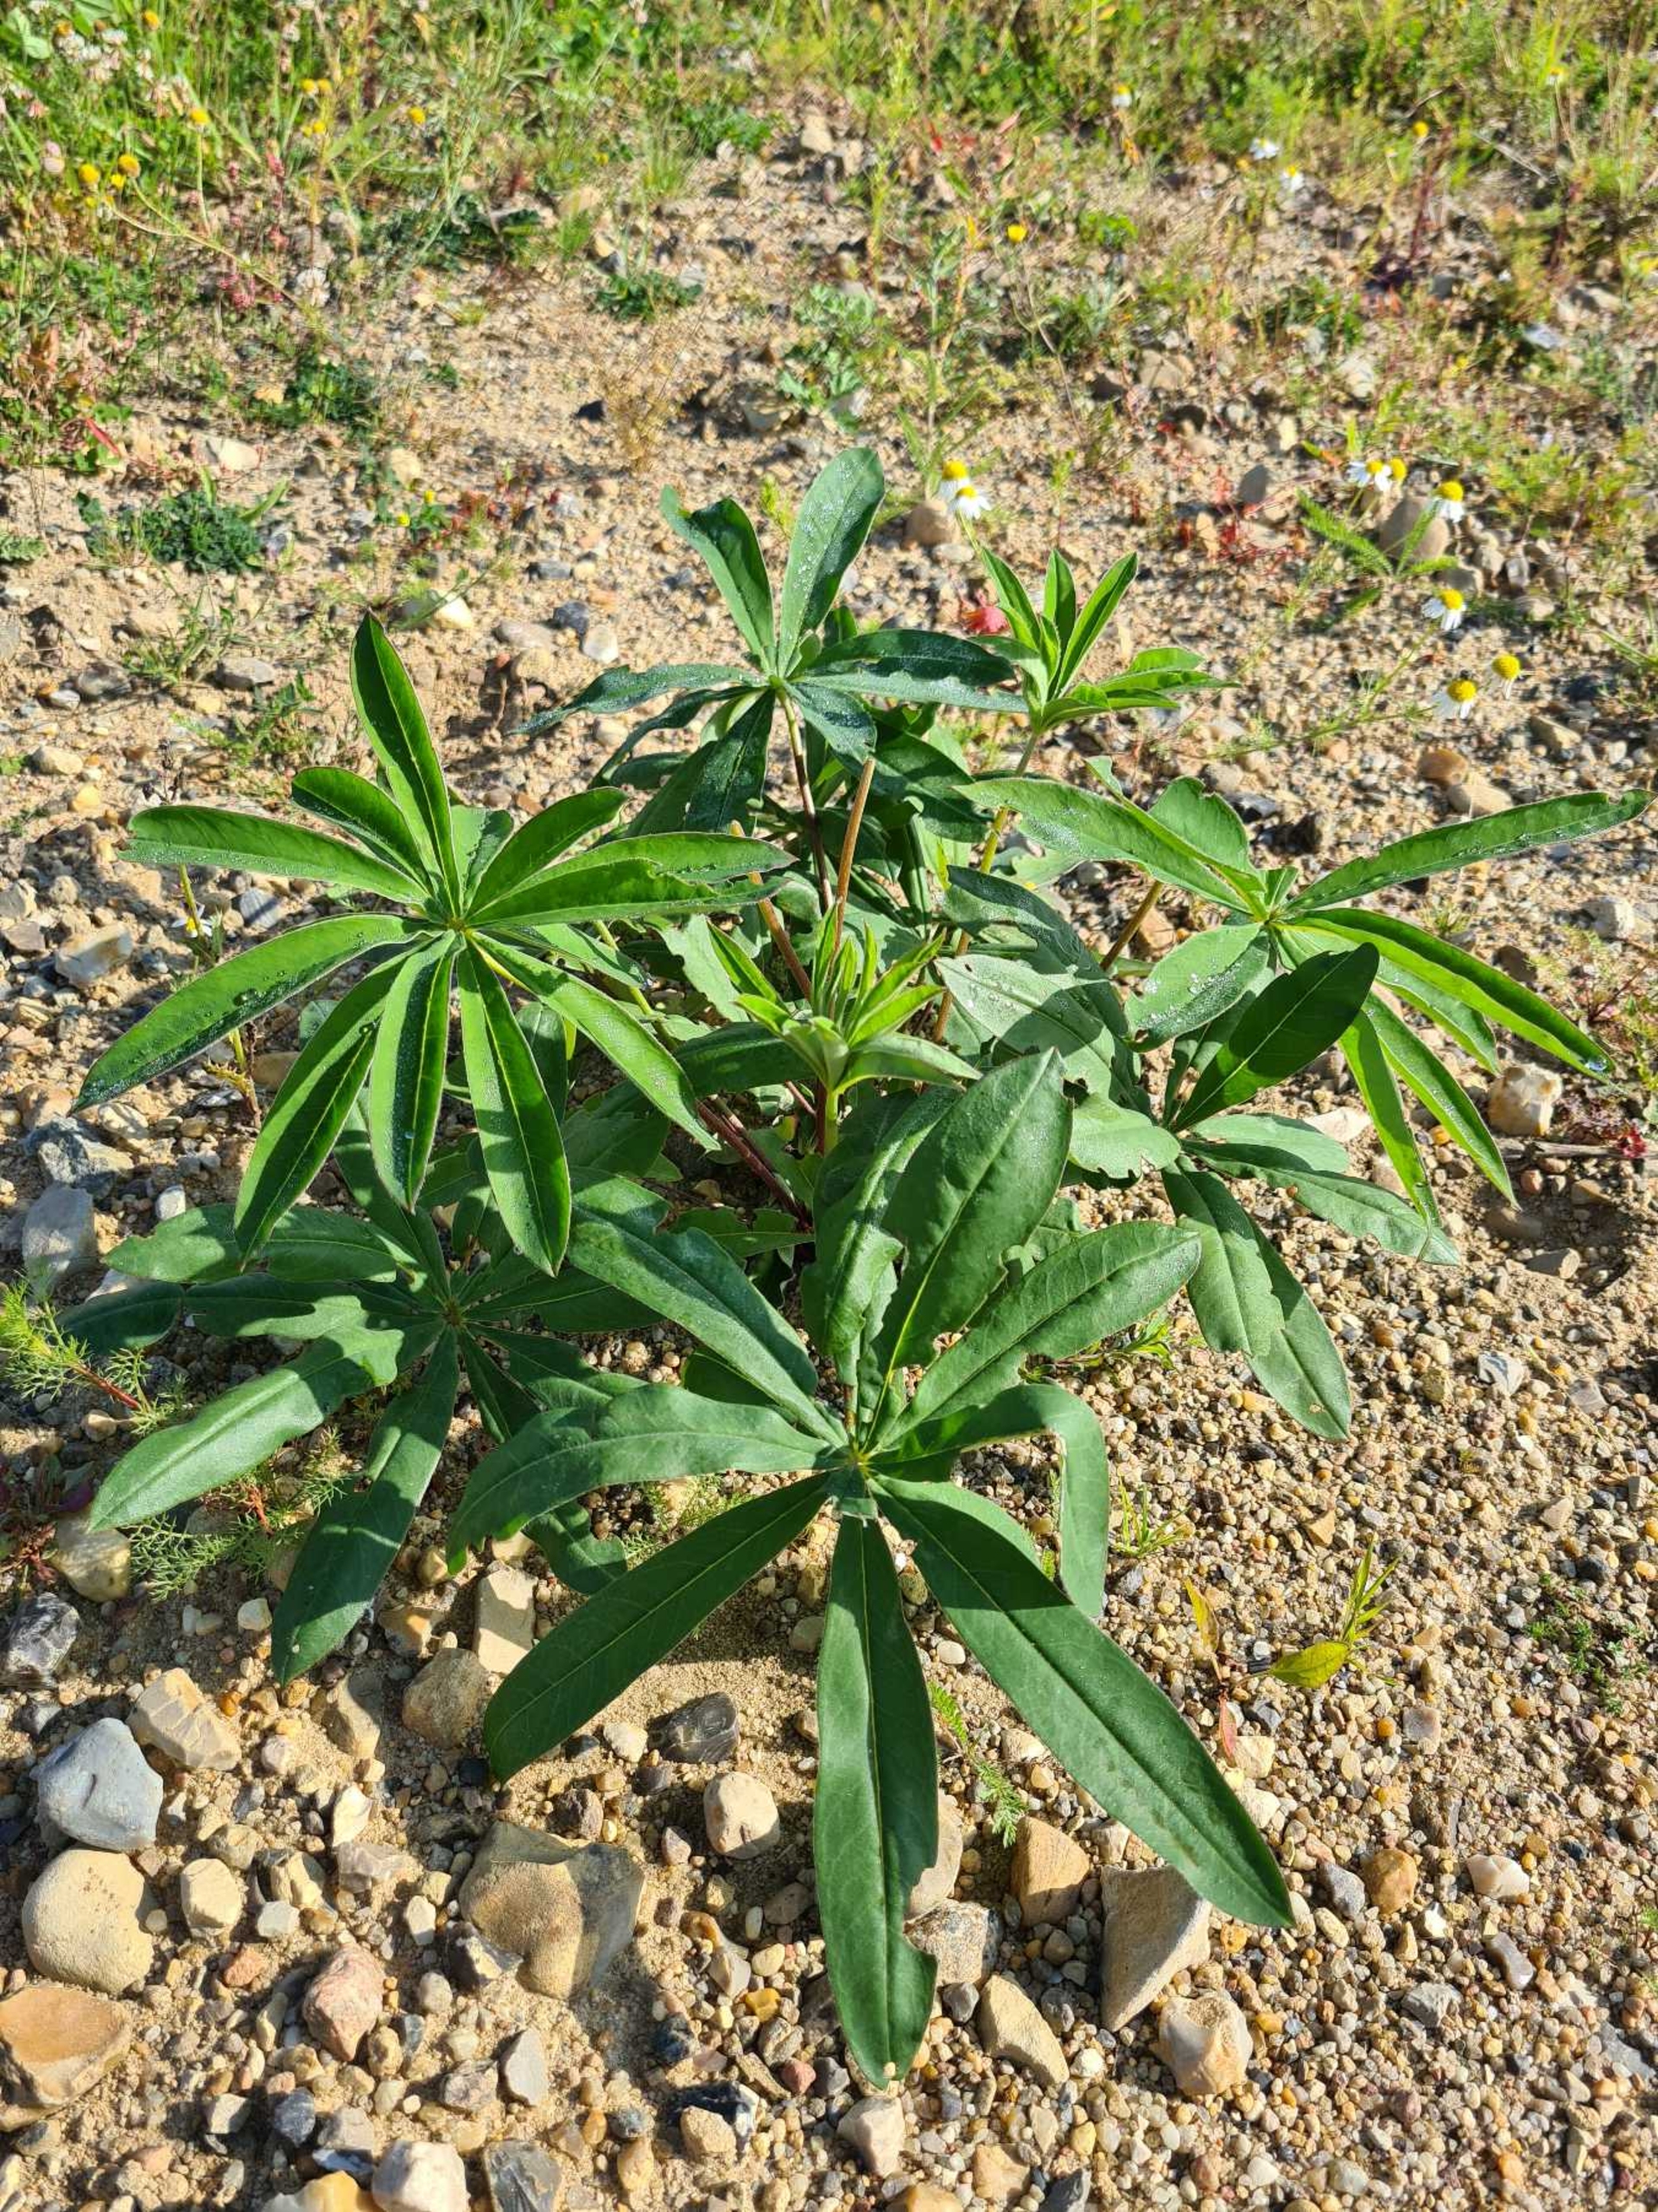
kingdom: Plantae
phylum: Tracheophyta
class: Magnoliopsida
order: Fabales
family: Fabaceae
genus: Lupinus
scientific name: Lupinus polyphyllus
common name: Mangebladet lupin
